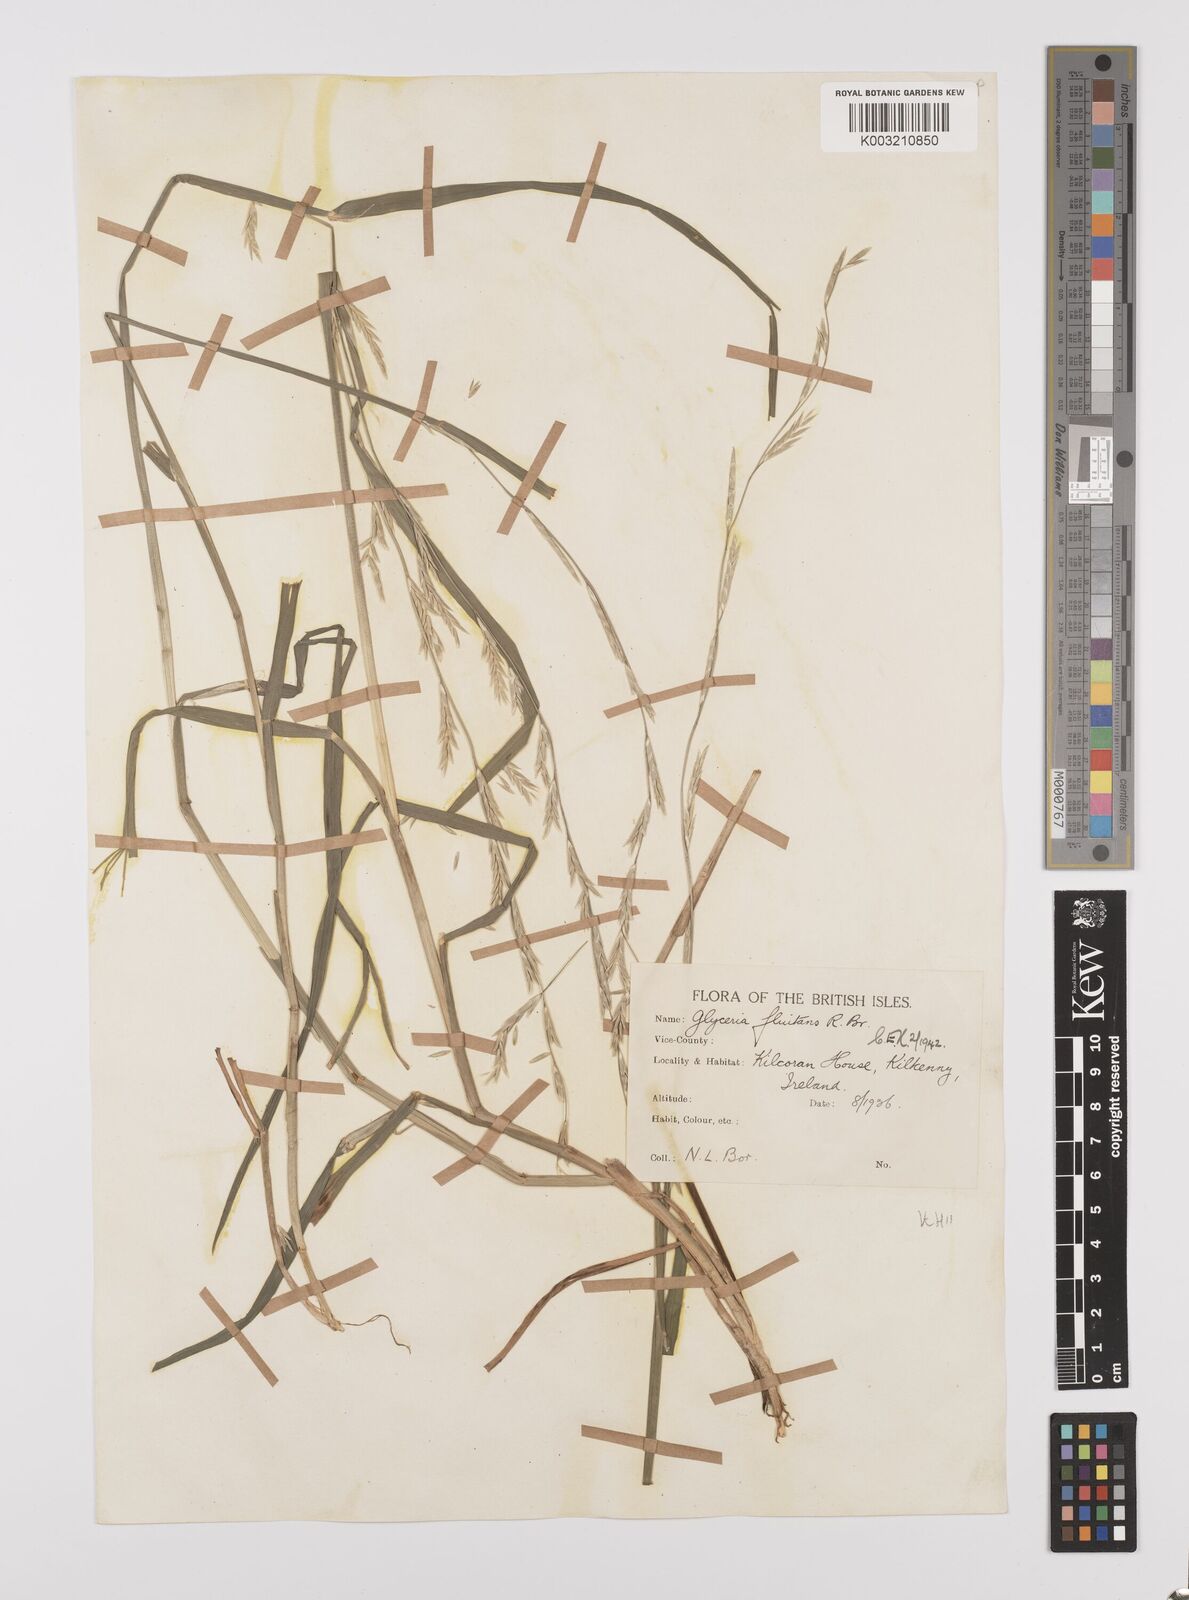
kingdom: Plantae
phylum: Tracheophyta
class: Liliopsida
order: Poales
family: Poaceae
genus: Glyceria
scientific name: Glyceria fluitans
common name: Floating sweet-grass
